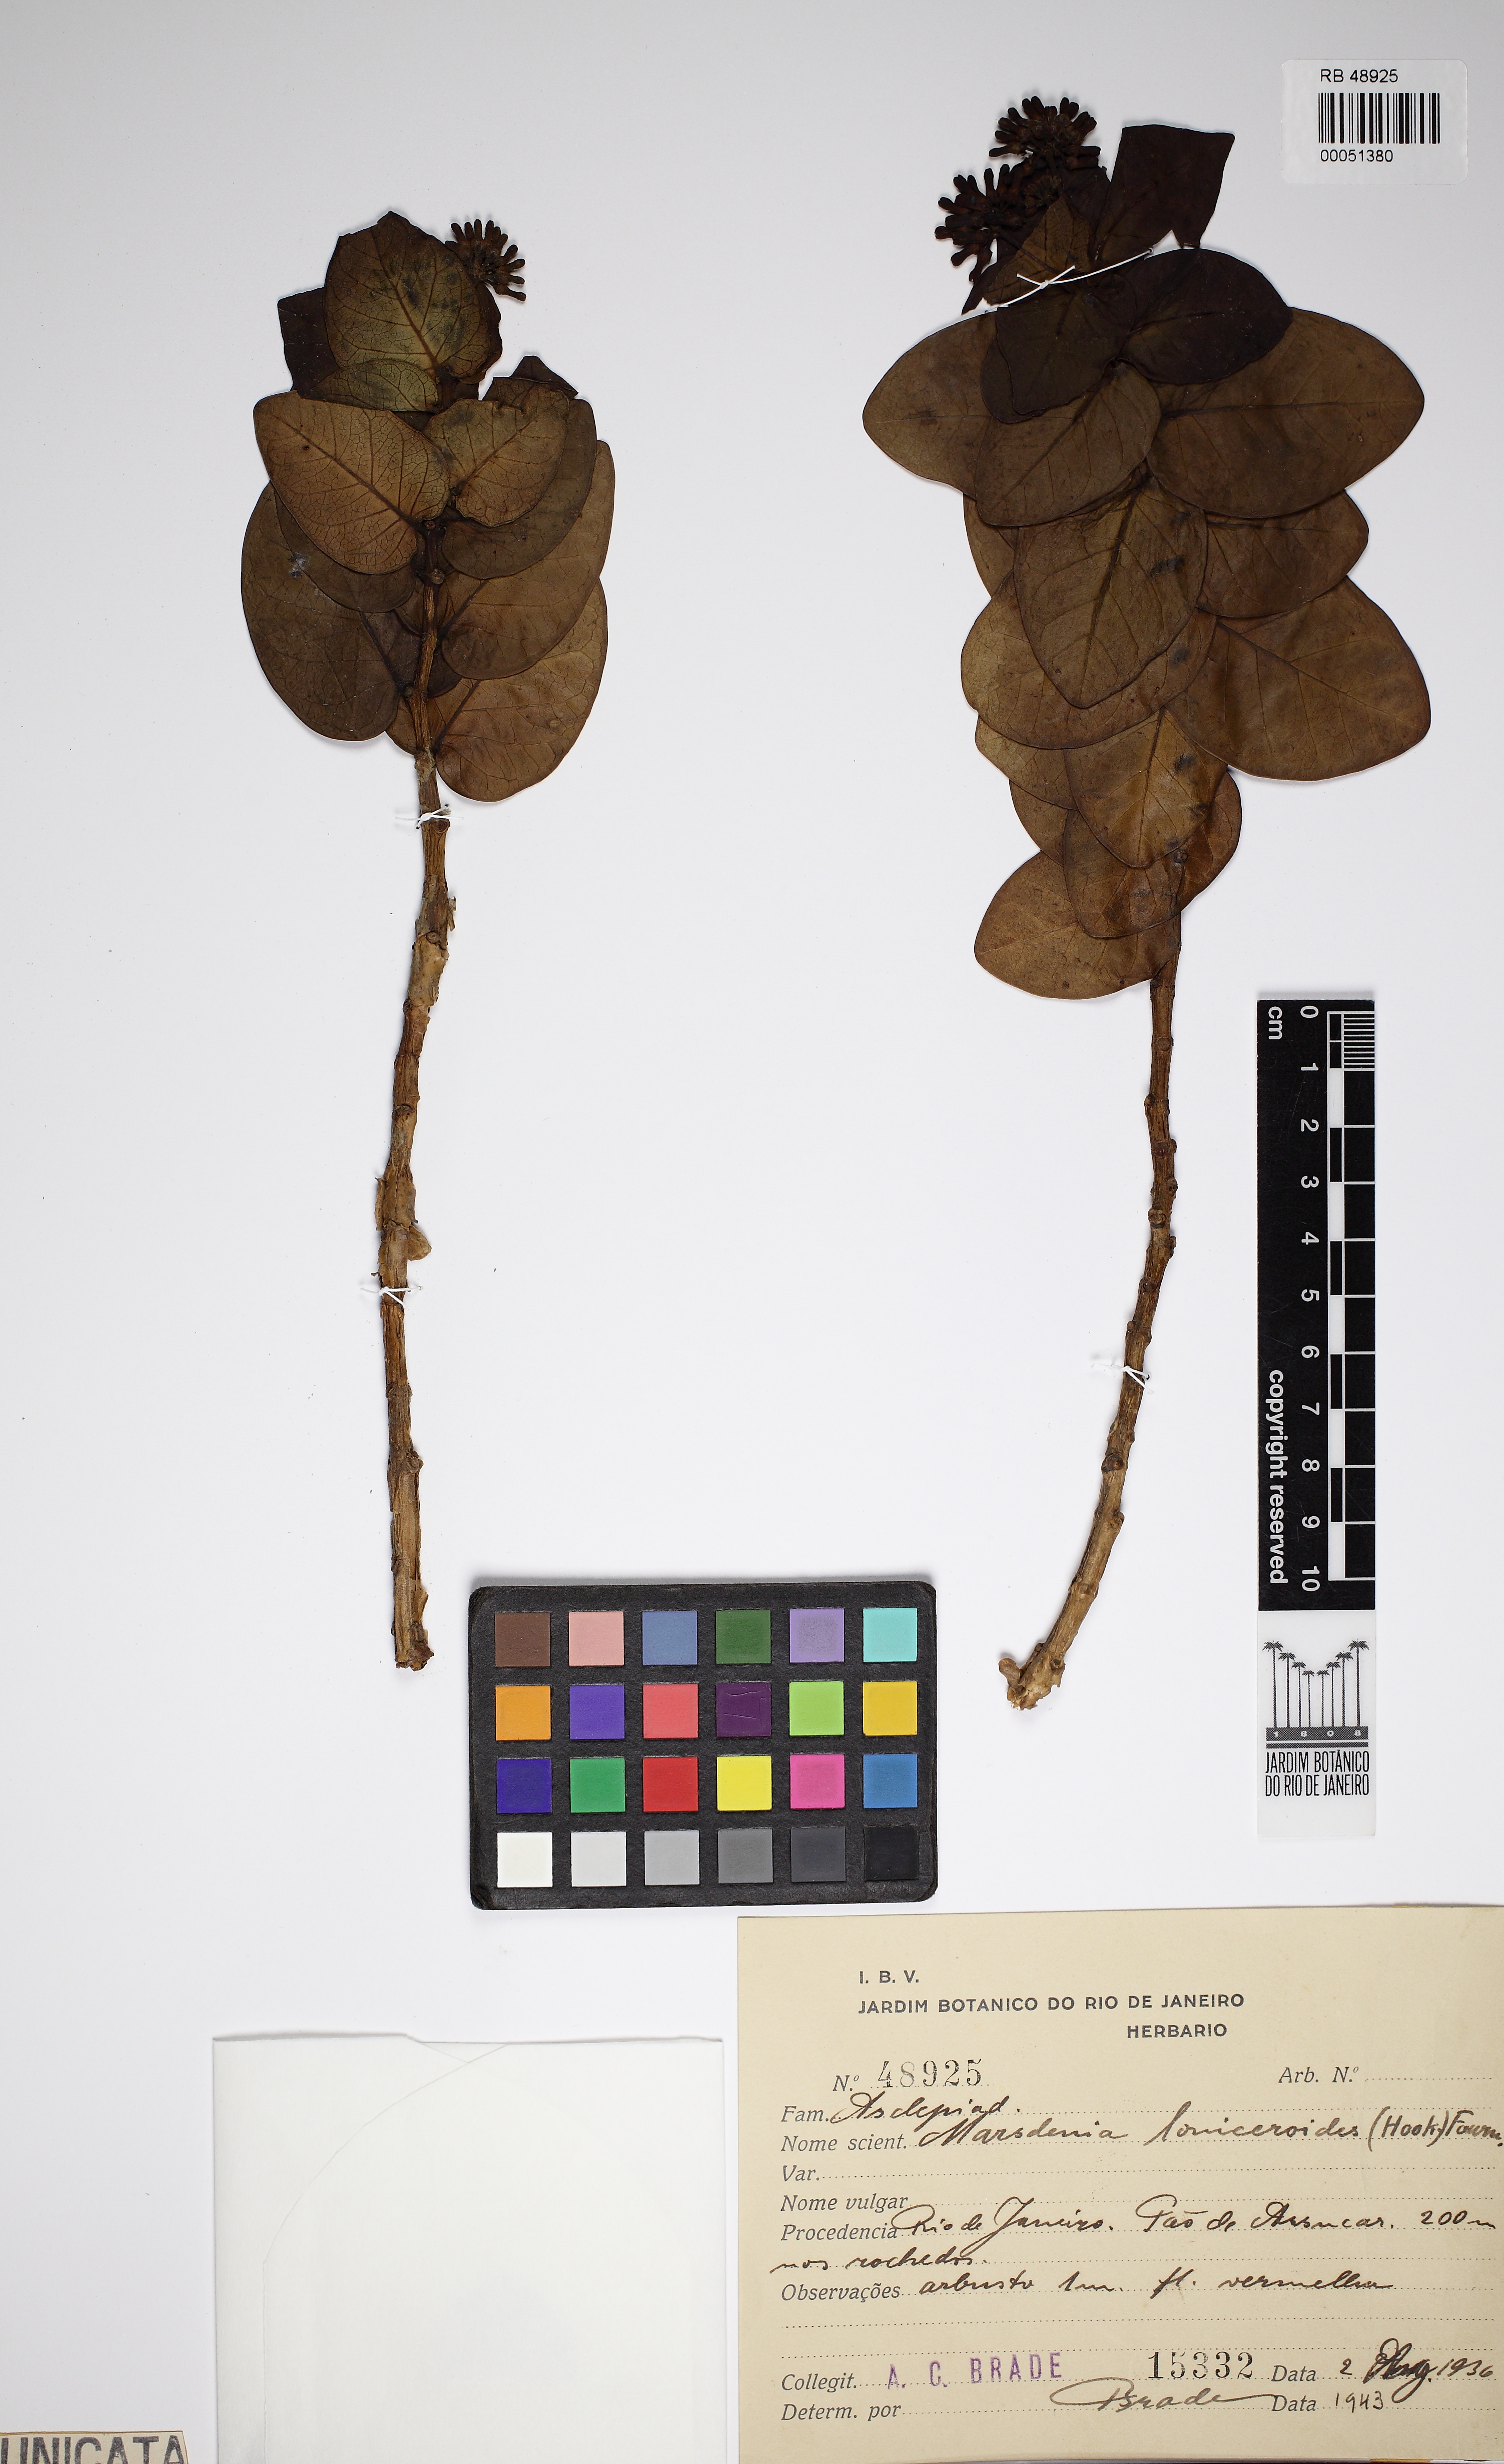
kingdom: Plantae
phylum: Tracheophyta
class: Magnoliopsida
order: Gentianales
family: Apocynaceae
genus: Ruehssia
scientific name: Ruehssia loniceroides
